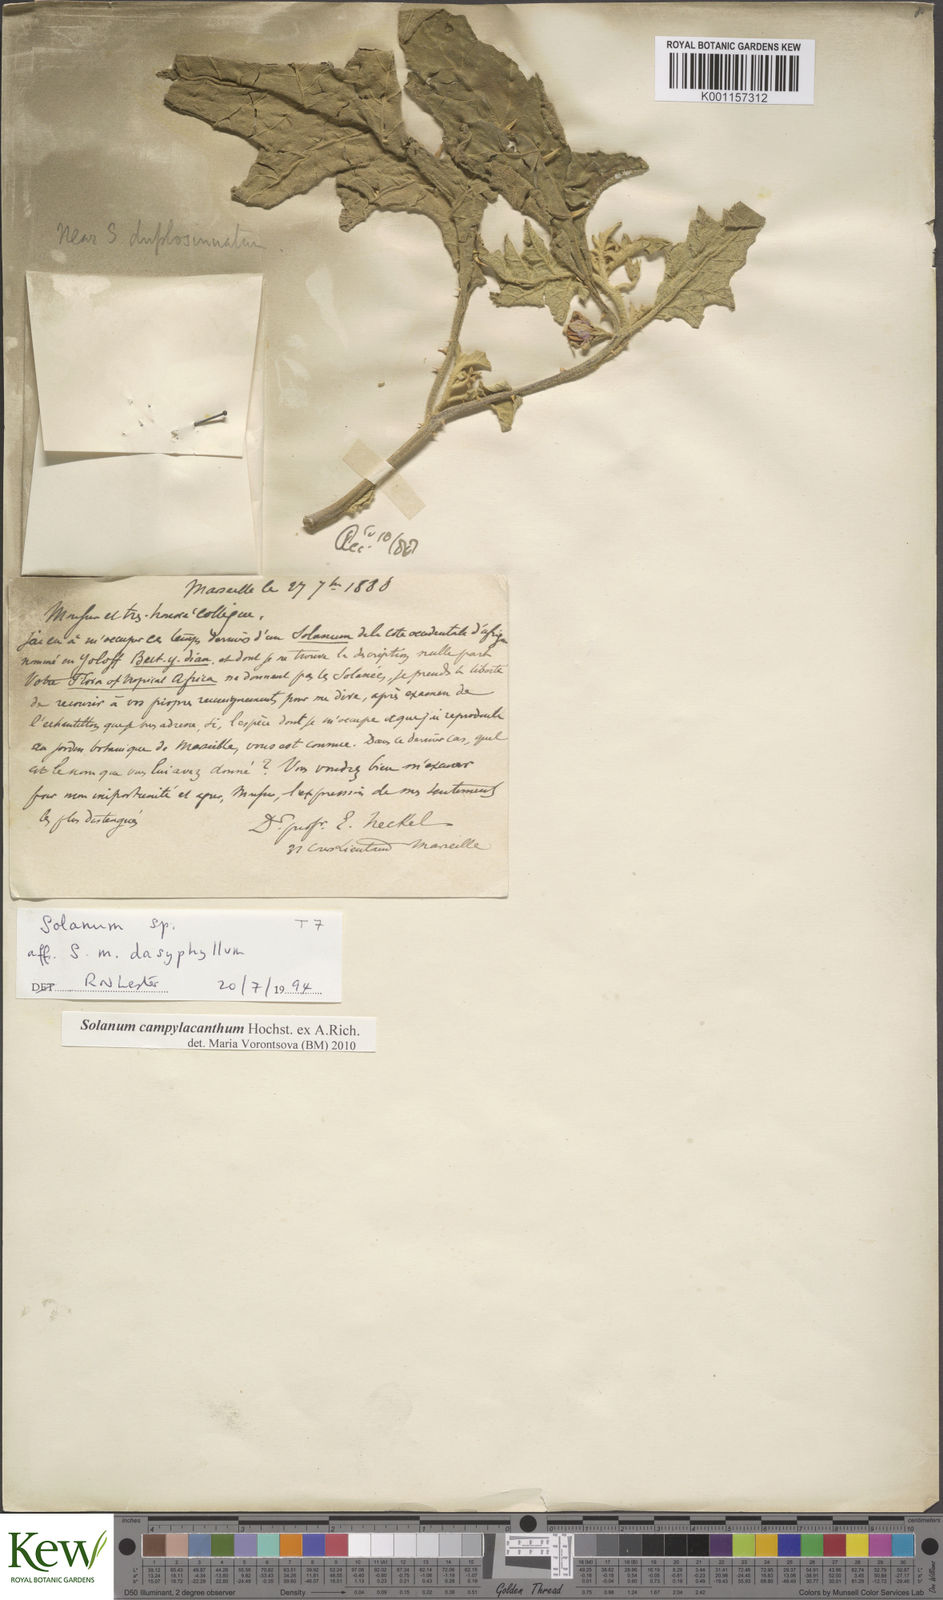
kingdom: Plantae
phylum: Tracheophyta
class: Magnoliopsida
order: Solanales
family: Solanaceae
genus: Solanum
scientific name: Solanum campylacanthum
